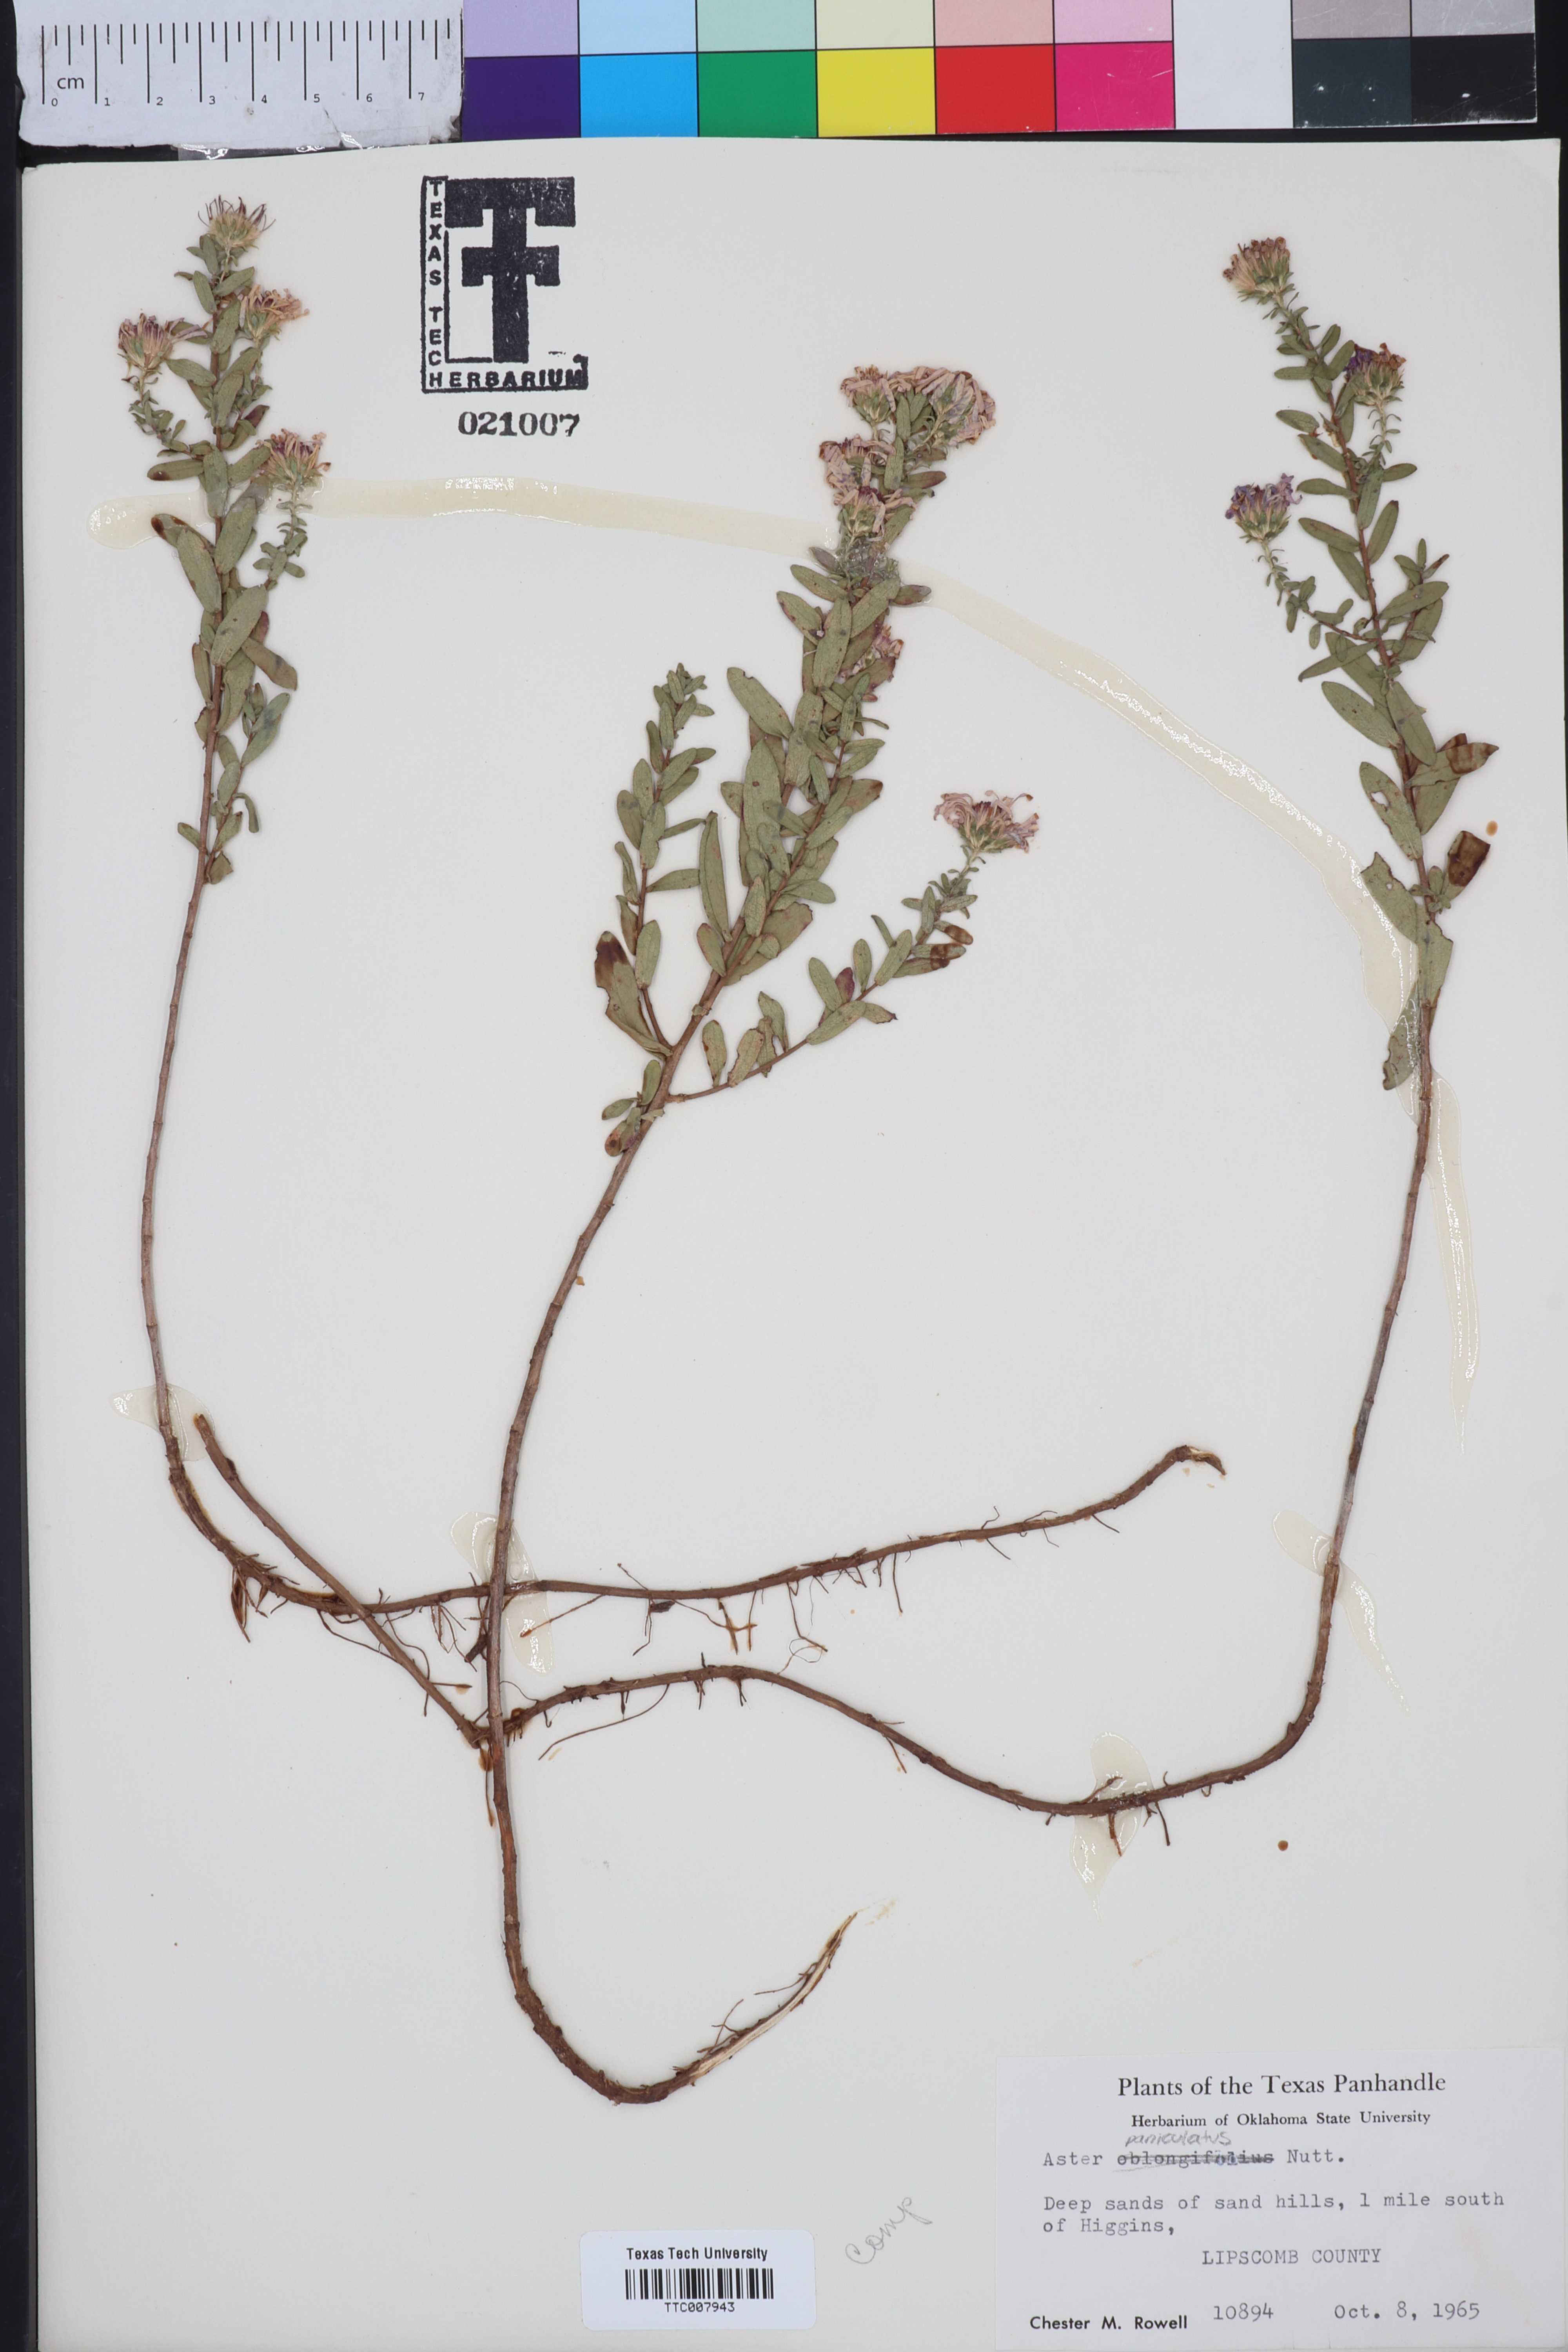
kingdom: Plantae
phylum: Tracheophyta
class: Magnoliopsida
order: Asterales
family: Asteraceae
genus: Symphyotrichum
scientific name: Symphyotrichum oblongifolium
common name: Aromatic aster
